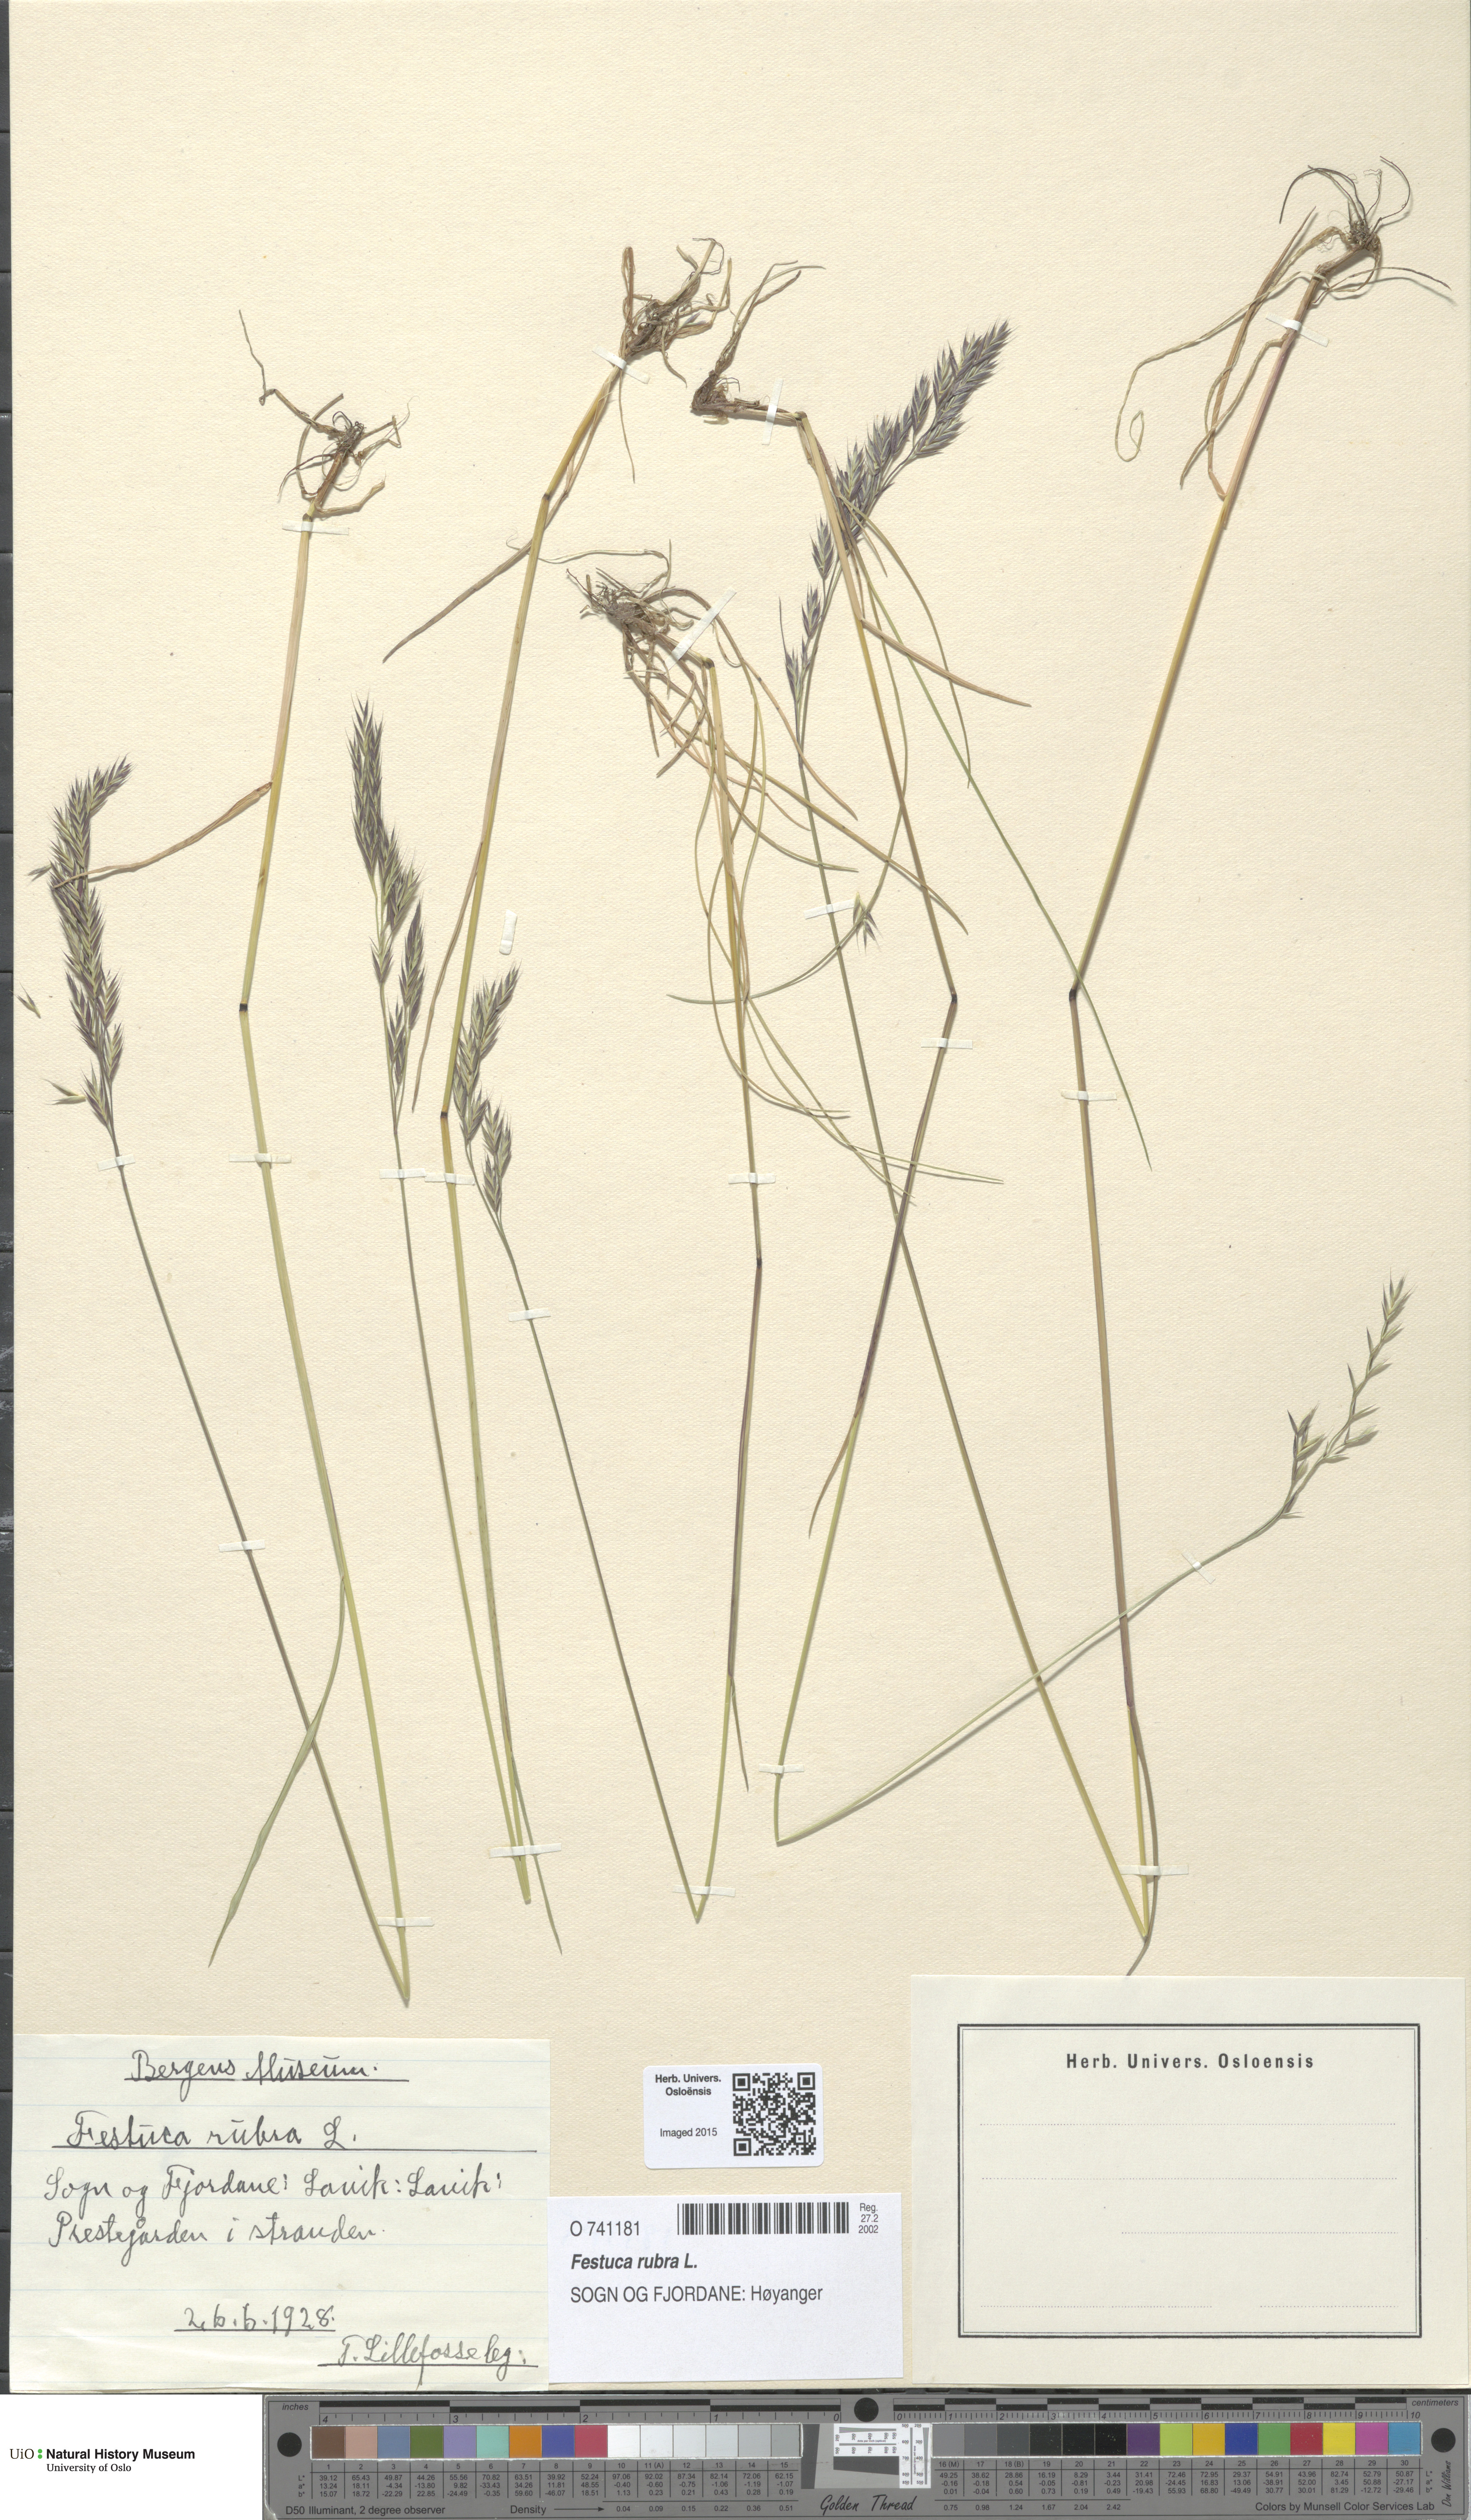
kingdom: Plantae
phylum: Tracheophyta
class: Liliopsida
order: Poales
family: Poaceae
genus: Festuca
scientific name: Festuca rubra
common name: Red fescue
